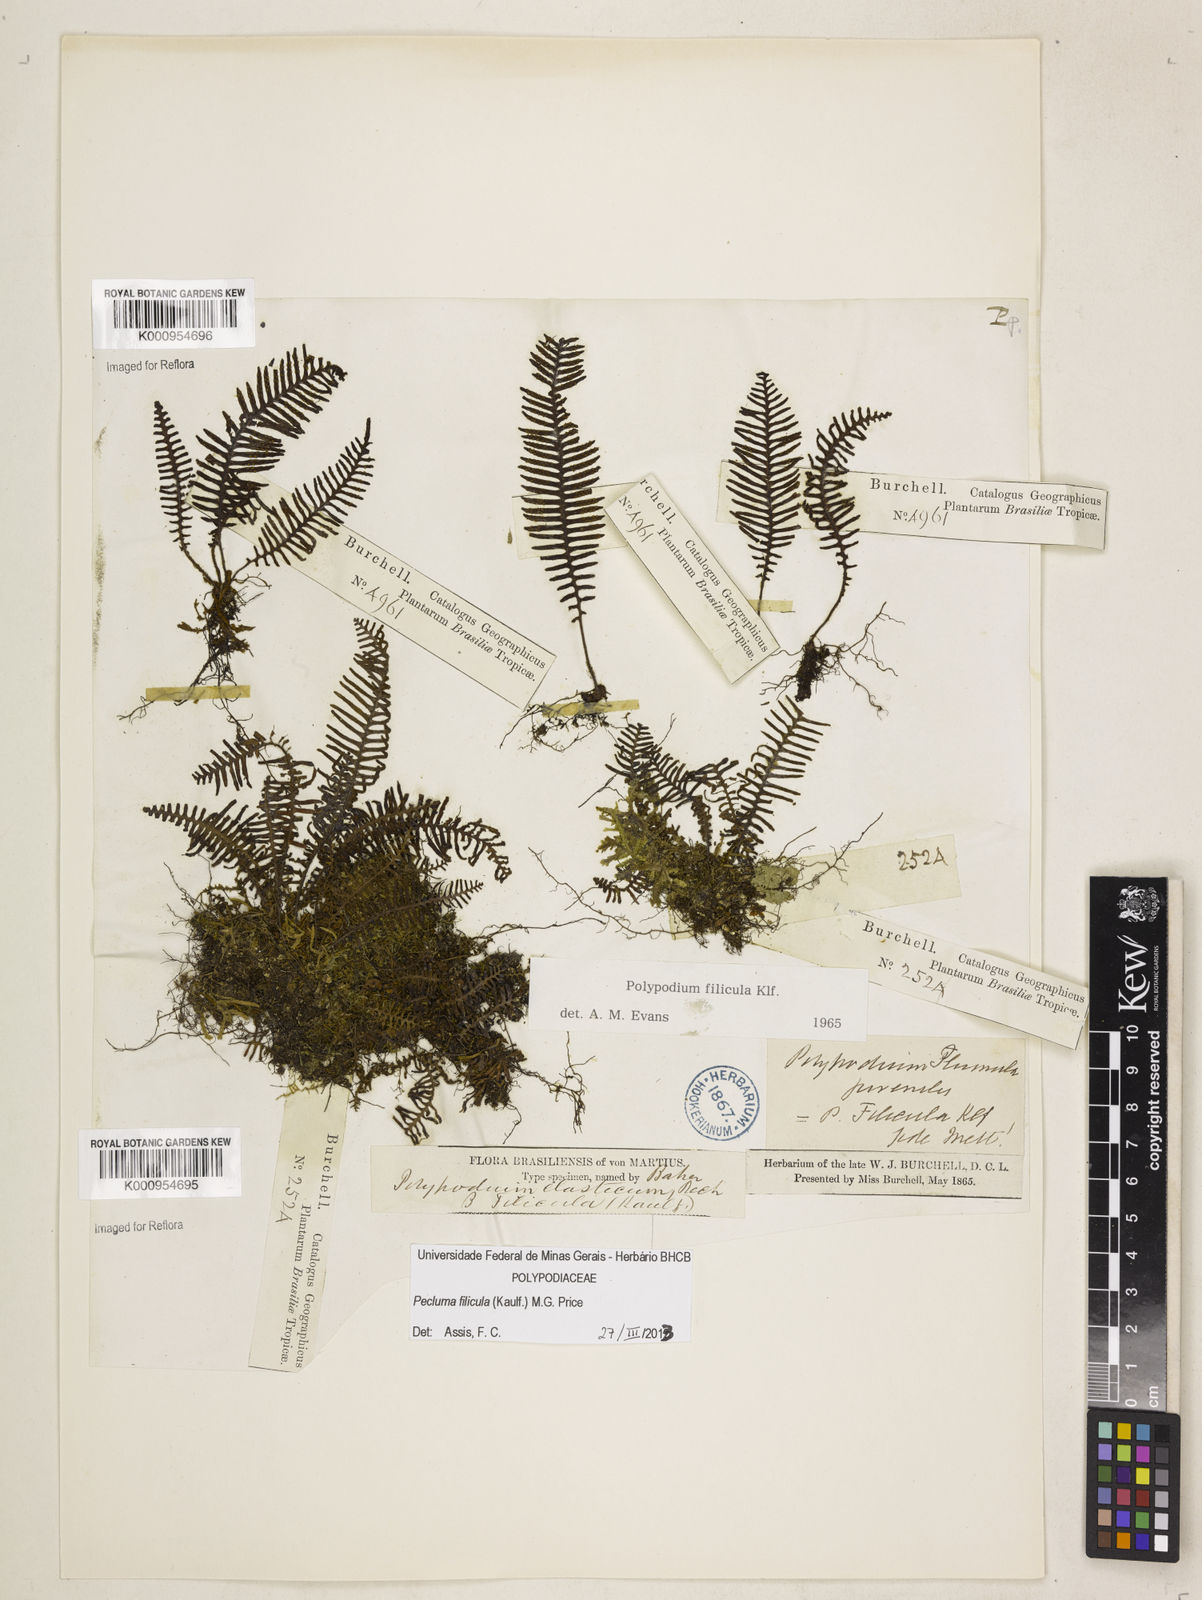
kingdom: Plantae
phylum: Tracheophyta
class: Polypodiopsida
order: Polypodiales
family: Polypodiaceae
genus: Pecluma
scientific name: Pecluma filicula
